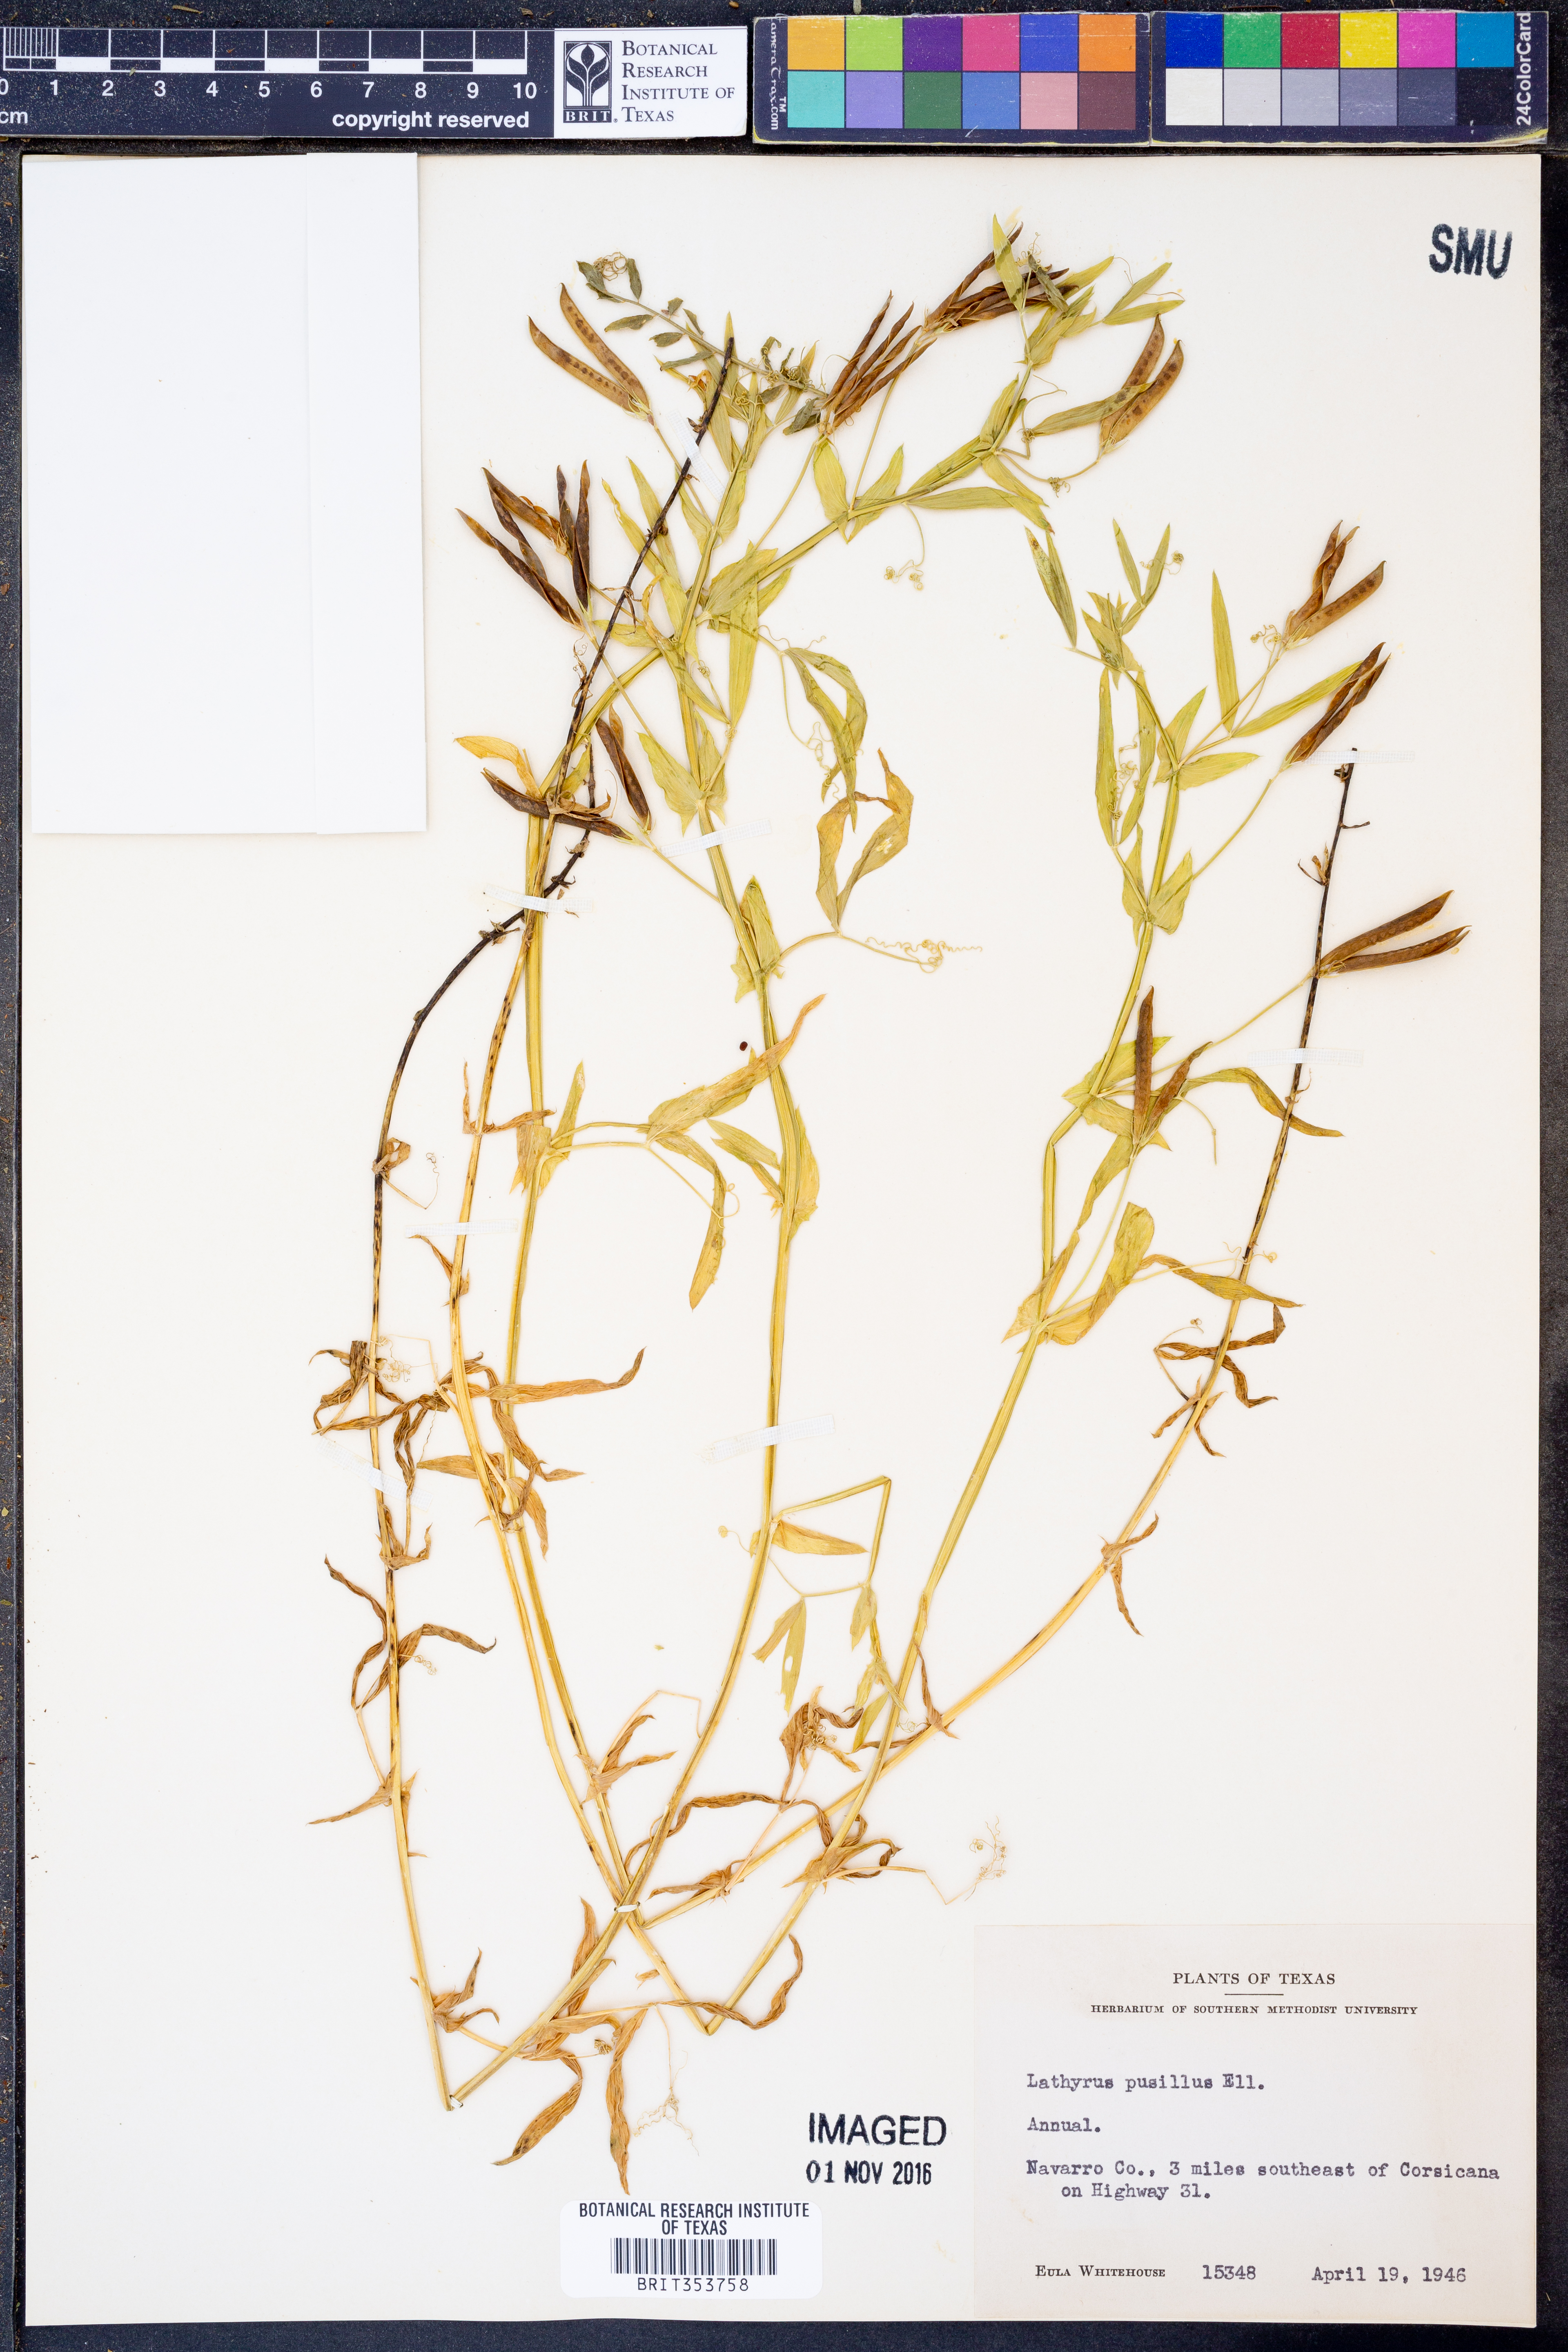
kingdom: Plantae
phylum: Tracheophyta
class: Magnoliopsida
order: Fabales
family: Fabaceae
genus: Lathyrus
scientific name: Lathyrus pusillus
